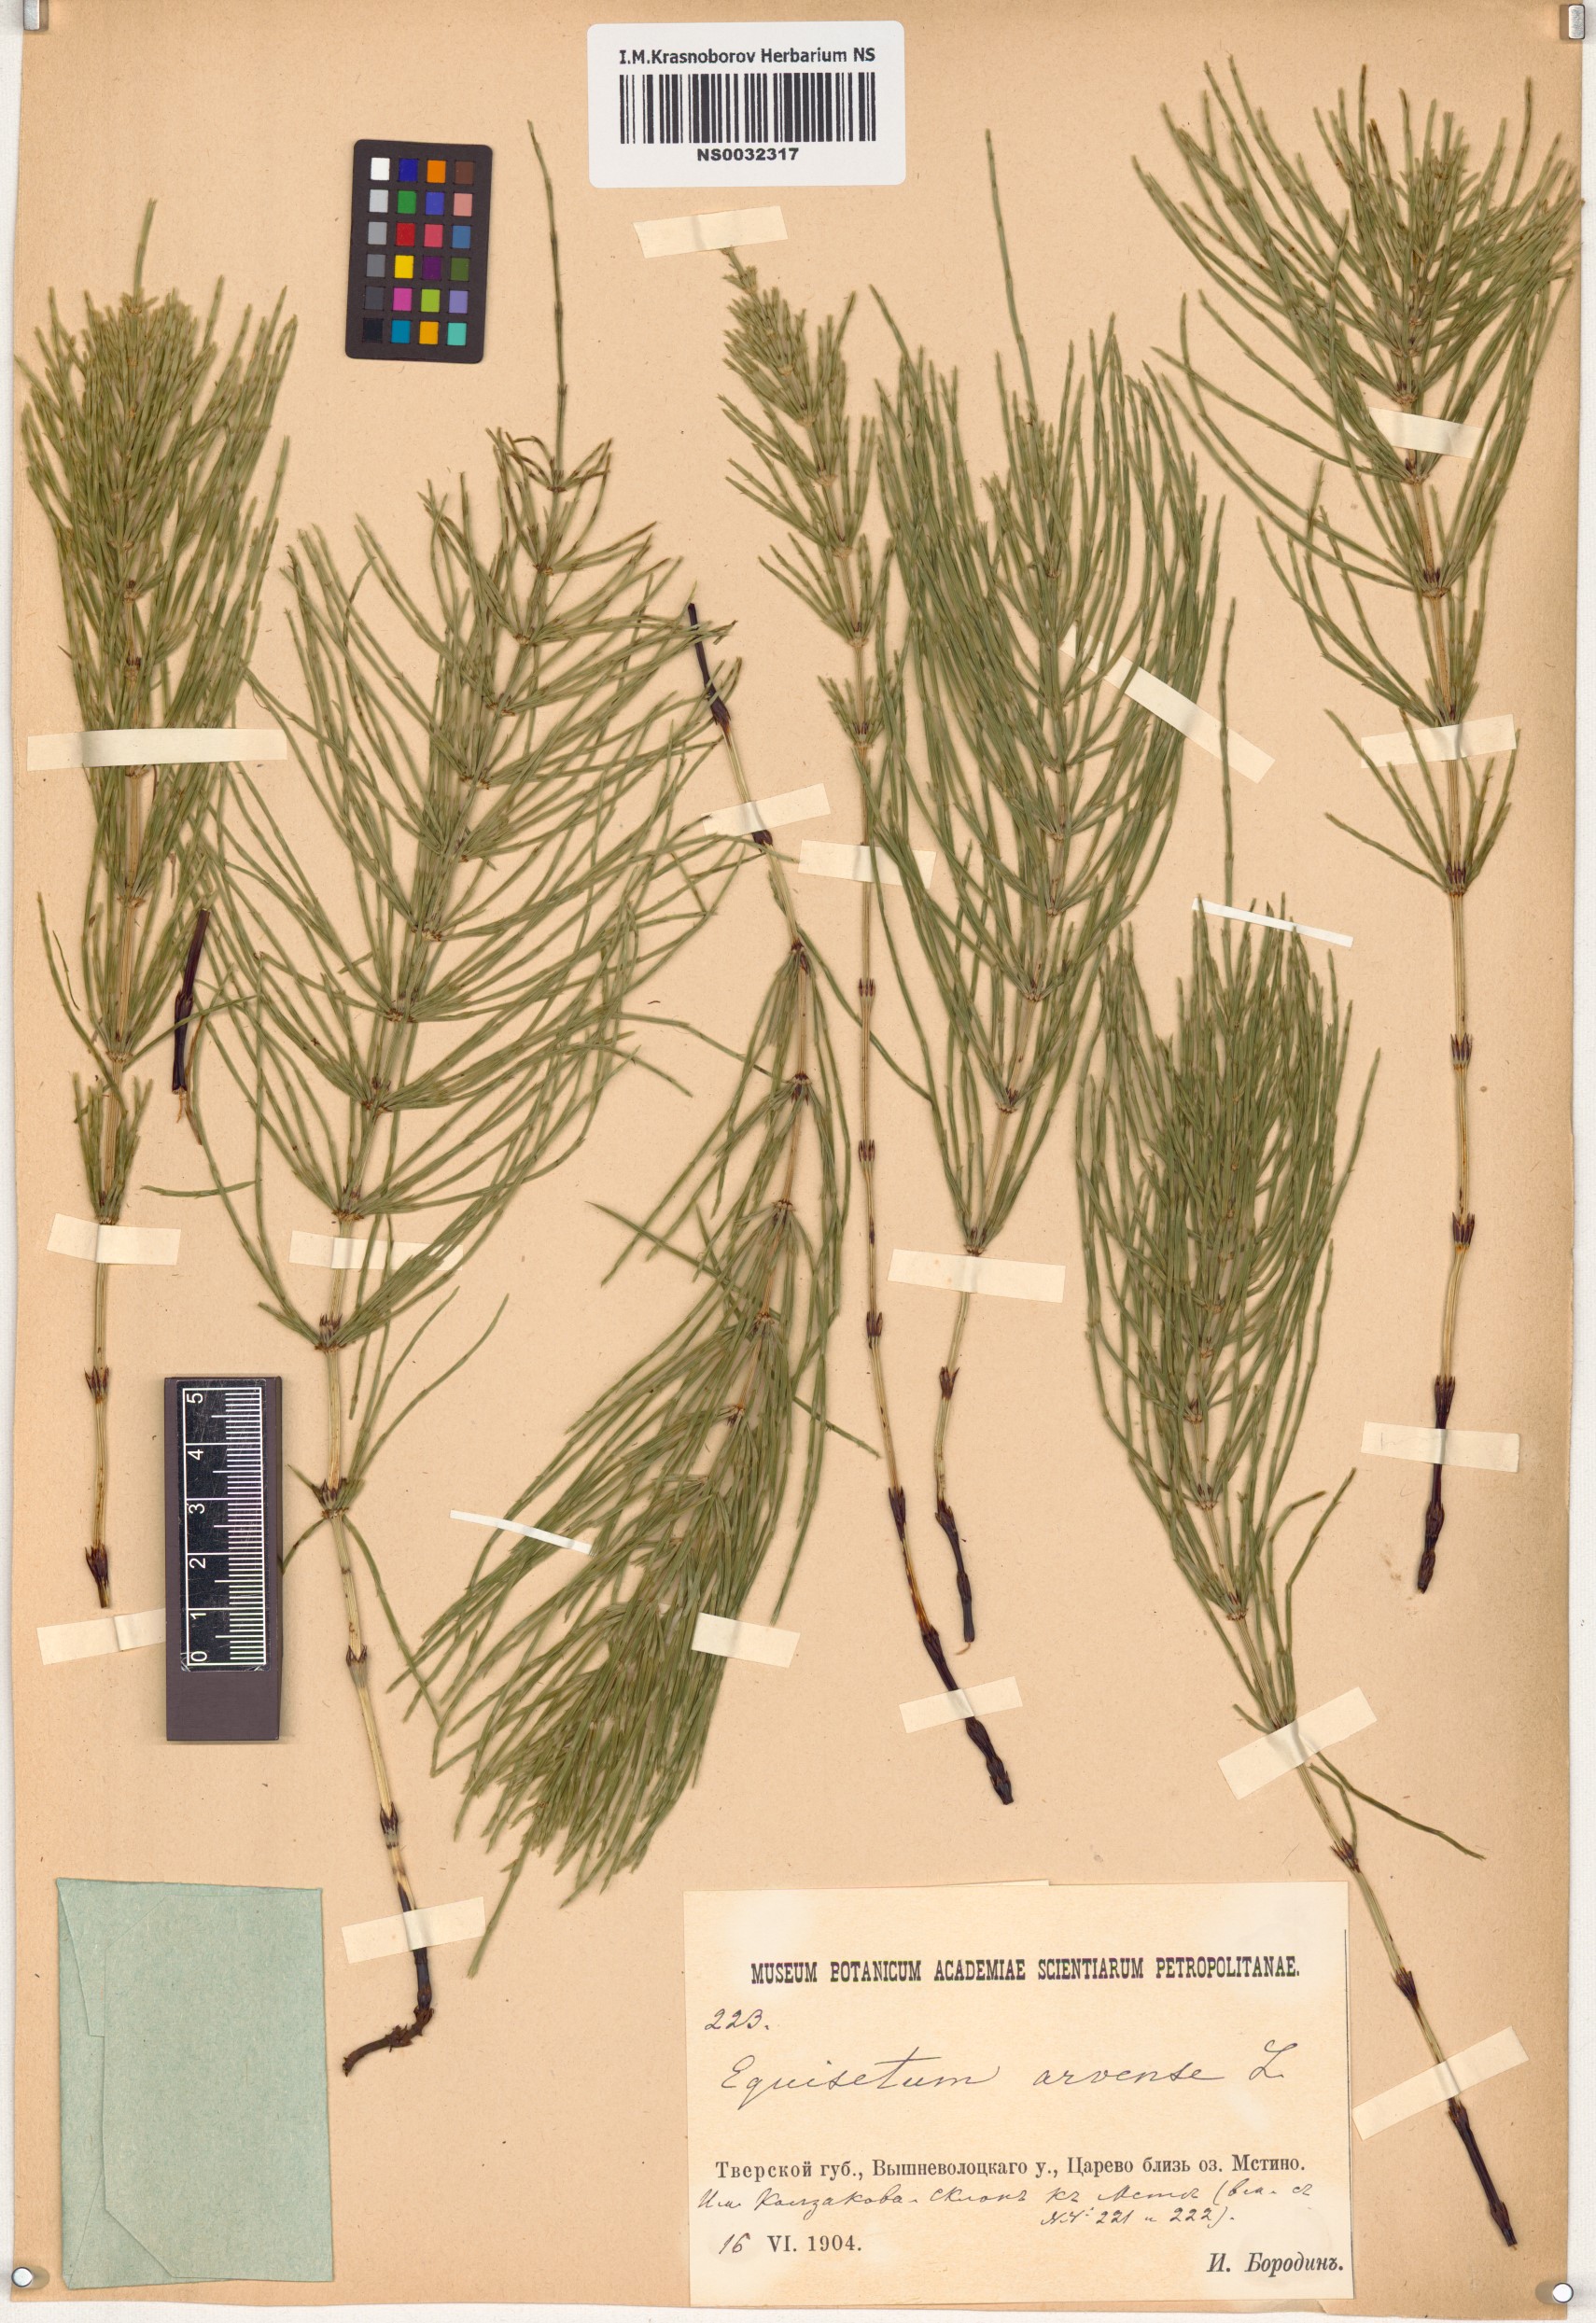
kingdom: Plantae
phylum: Tracheophyta
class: Polypodiopsida
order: Equisetales
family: Equisetaceae
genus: Equisetum
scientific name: Equisetum arvense
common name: Field horsetail
